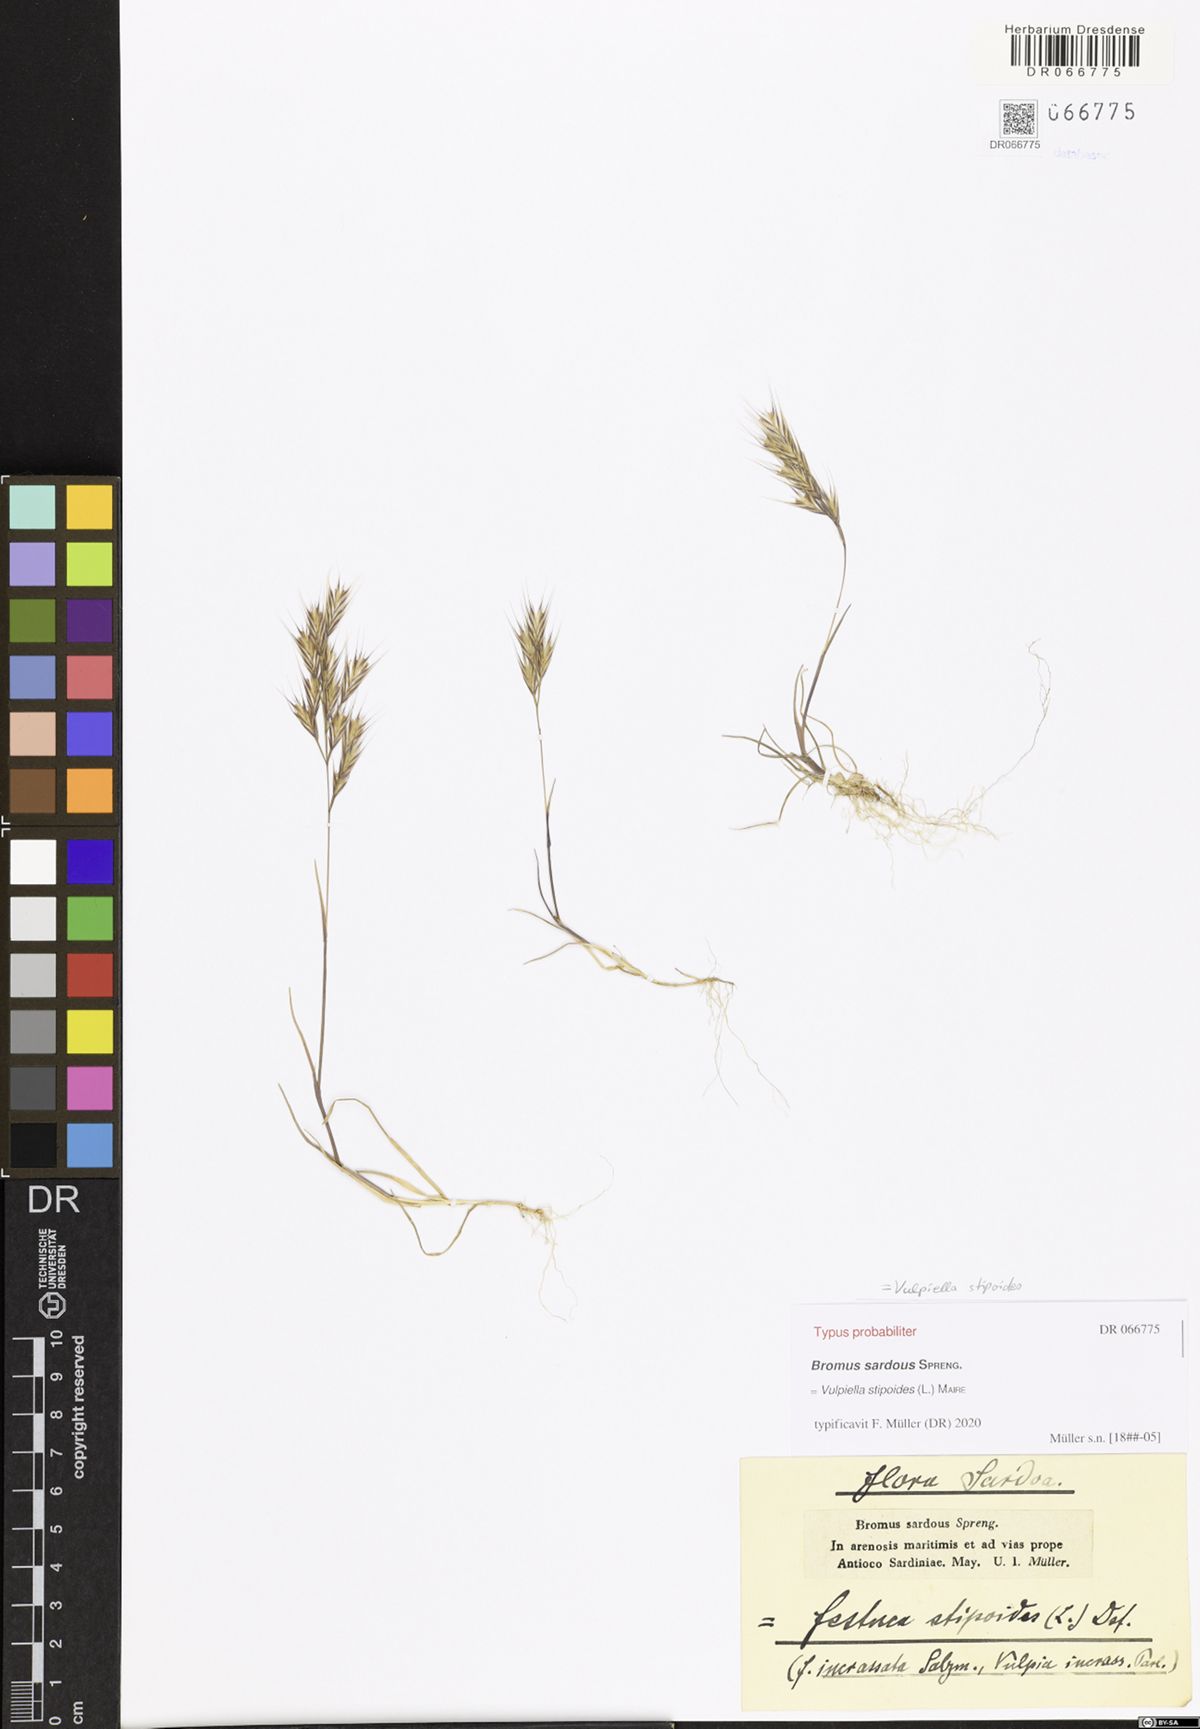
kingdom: Plantae
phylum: Tracheophyta
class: Liliopsida
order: Poales
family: Poaceae
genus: Vulpiella
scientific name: Vulpiella stipoides
